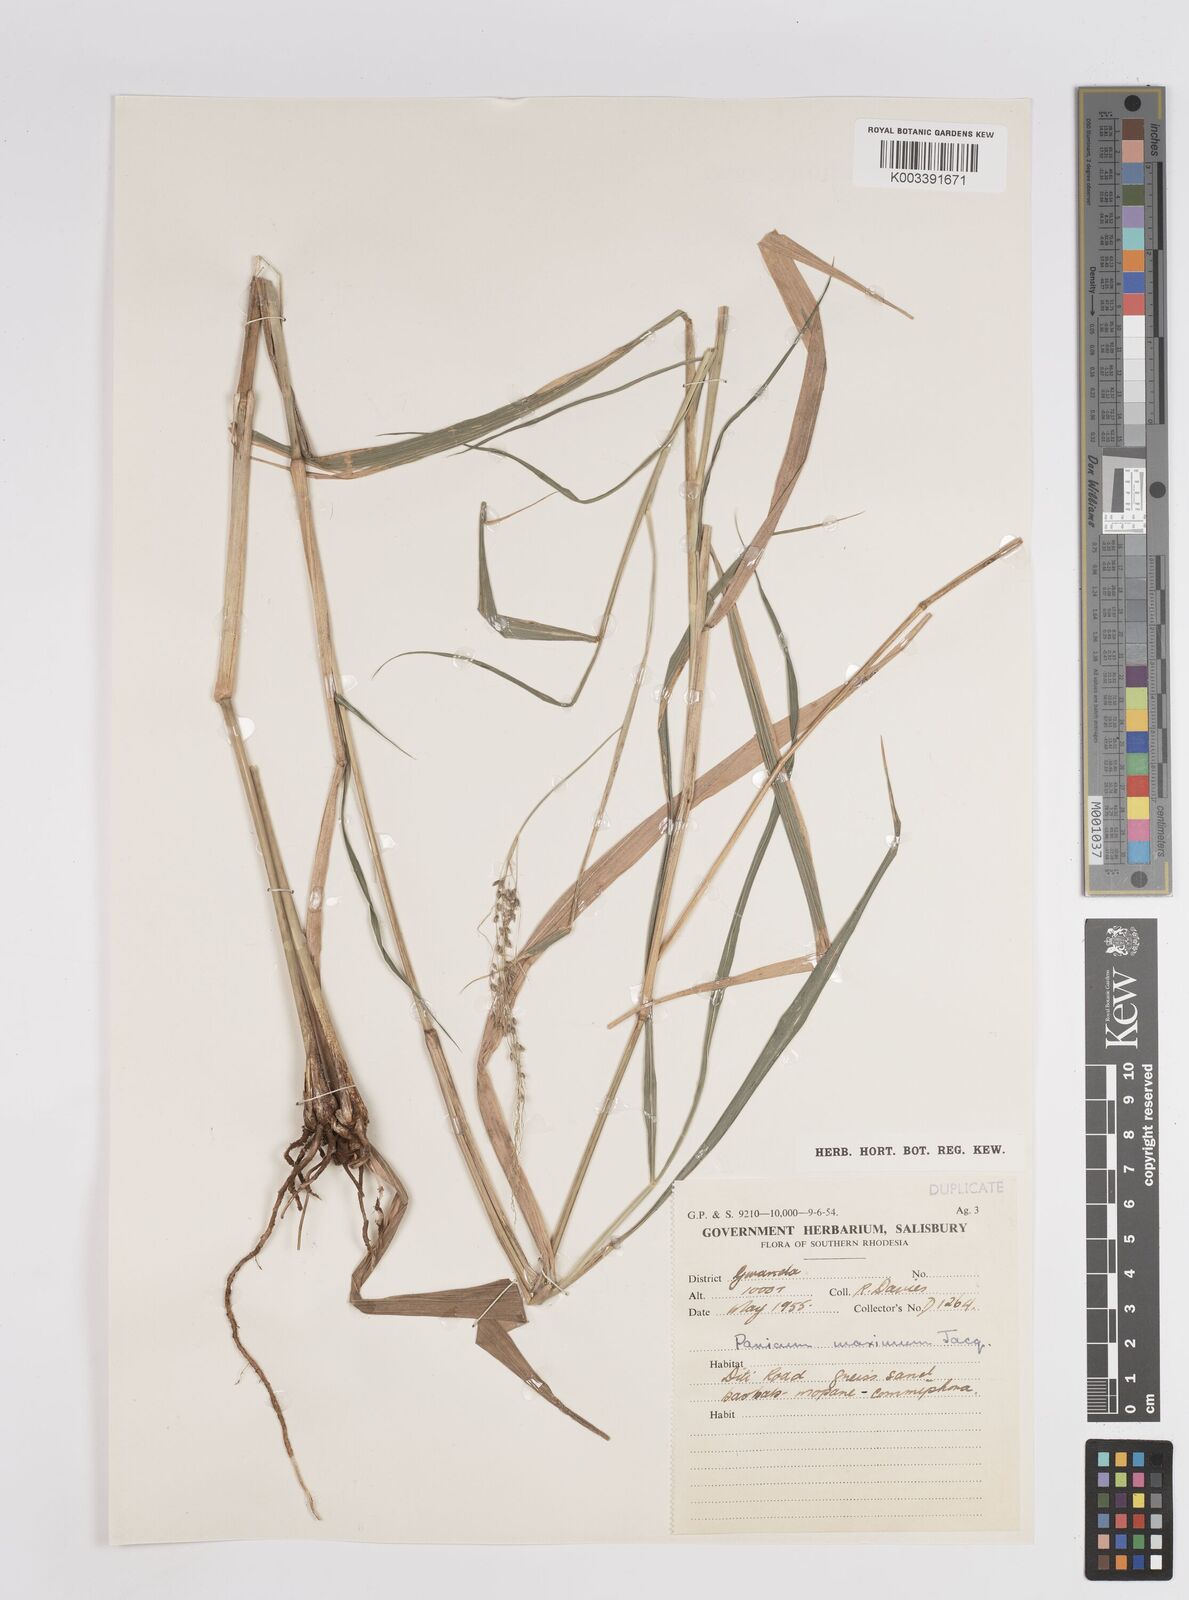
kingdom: Plantae
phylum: Tracheophyta
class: Liliopsida
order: Poales
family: Poaceae
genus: Megathyrsus
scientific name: Megathyrsus maximus
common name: Guineagrass
